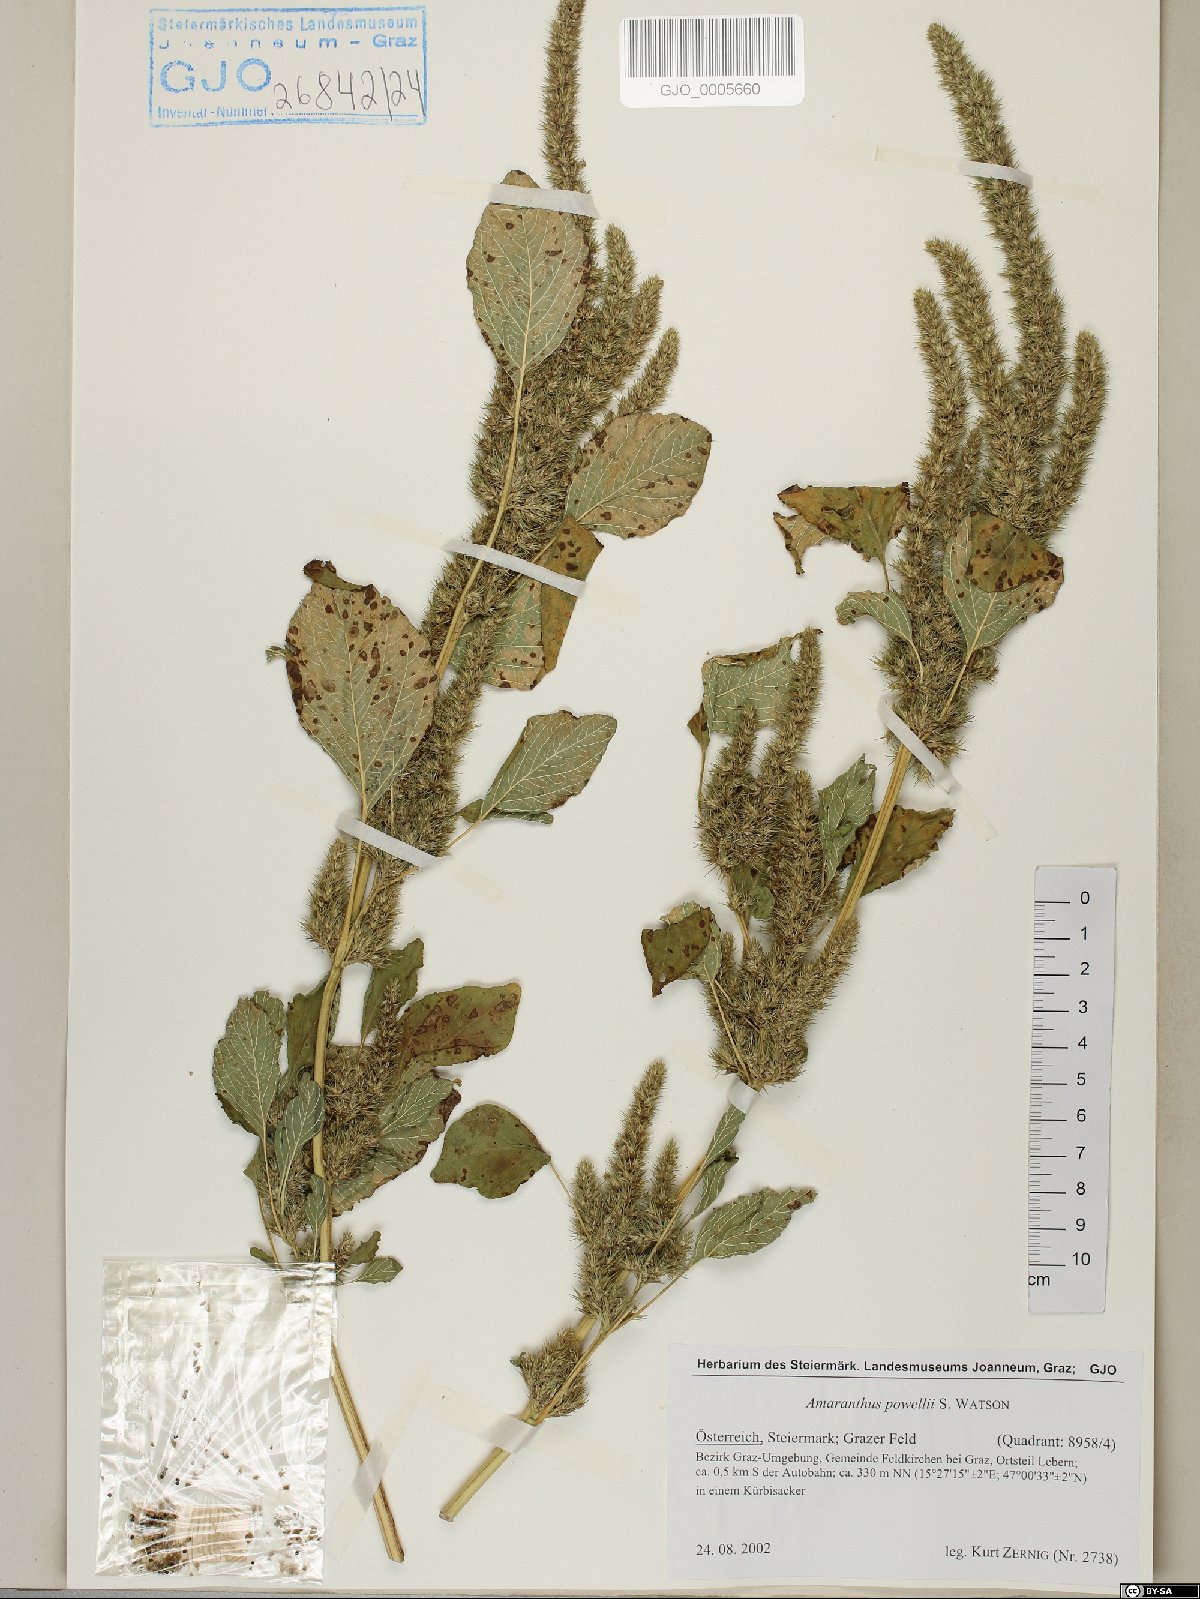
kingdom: Plantae
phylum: Tracheophyta
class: Magnoliopsida
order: Caryophyllales
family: Amaranthaceae
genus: Amaranthus
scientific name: Amaranthus powellii
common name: Powell's amaranth
